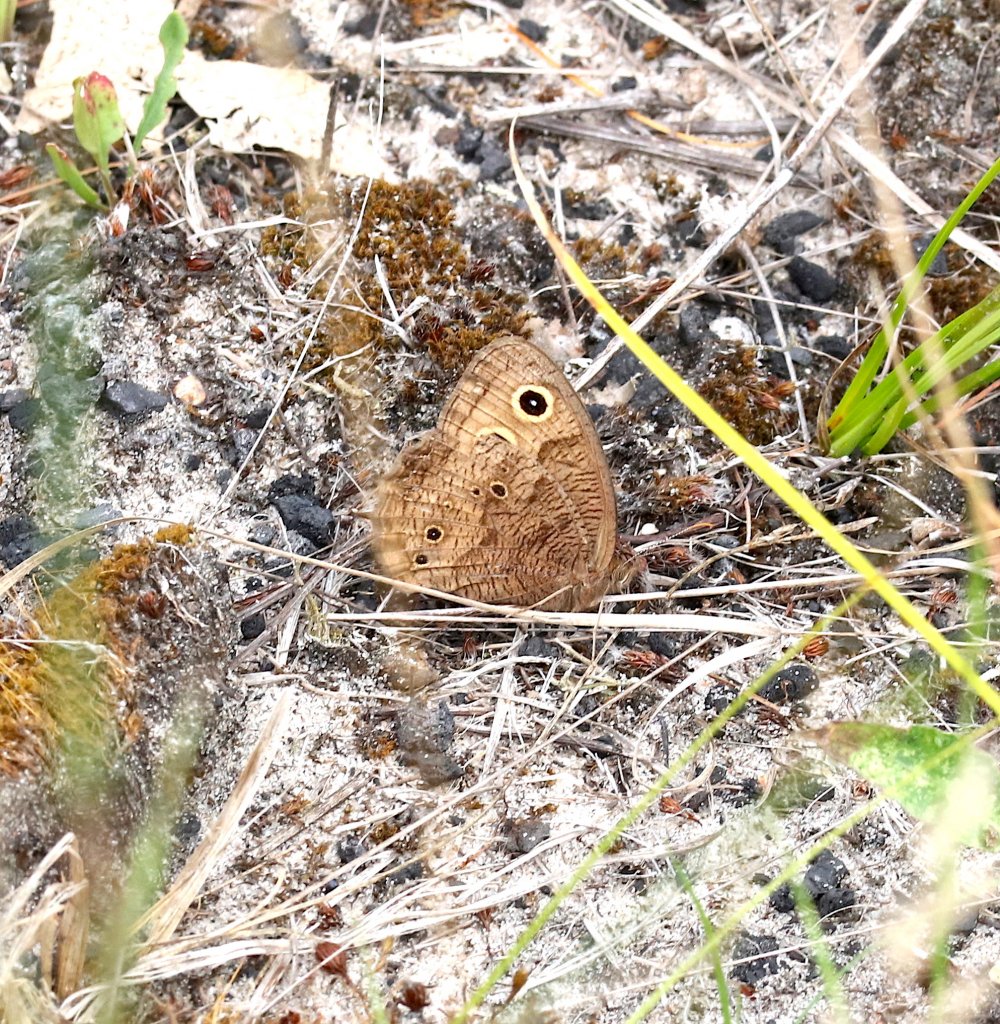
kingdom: Animalia
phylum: Arthropoda
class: Insecta
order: Lepidoptera
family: Nymphalidae
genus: Cercyonis
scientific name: Cercyonis pegala
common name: Common Wood-Nymph
